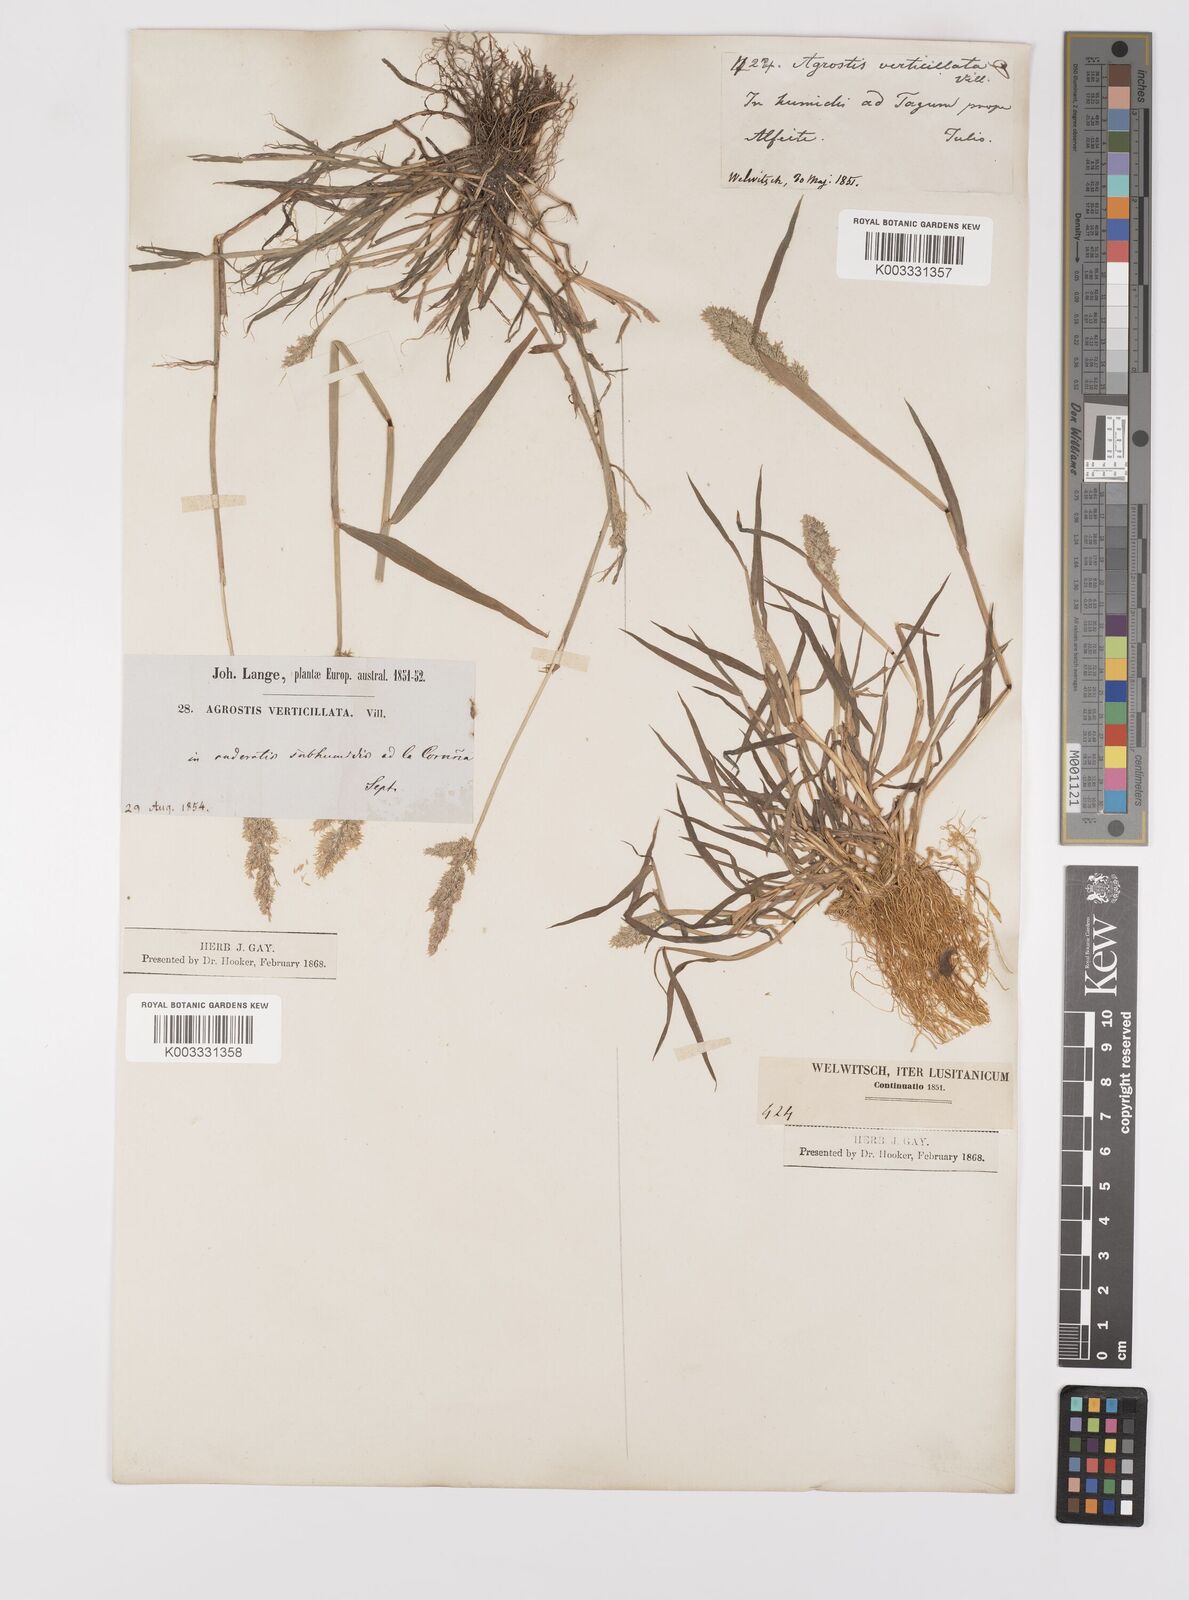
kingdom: Plantae
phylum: Tracheophyta
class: Liliopsida
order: Poales
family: Poaceae
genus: Polypogon
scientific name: Polypogon viridis
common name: Water bent
